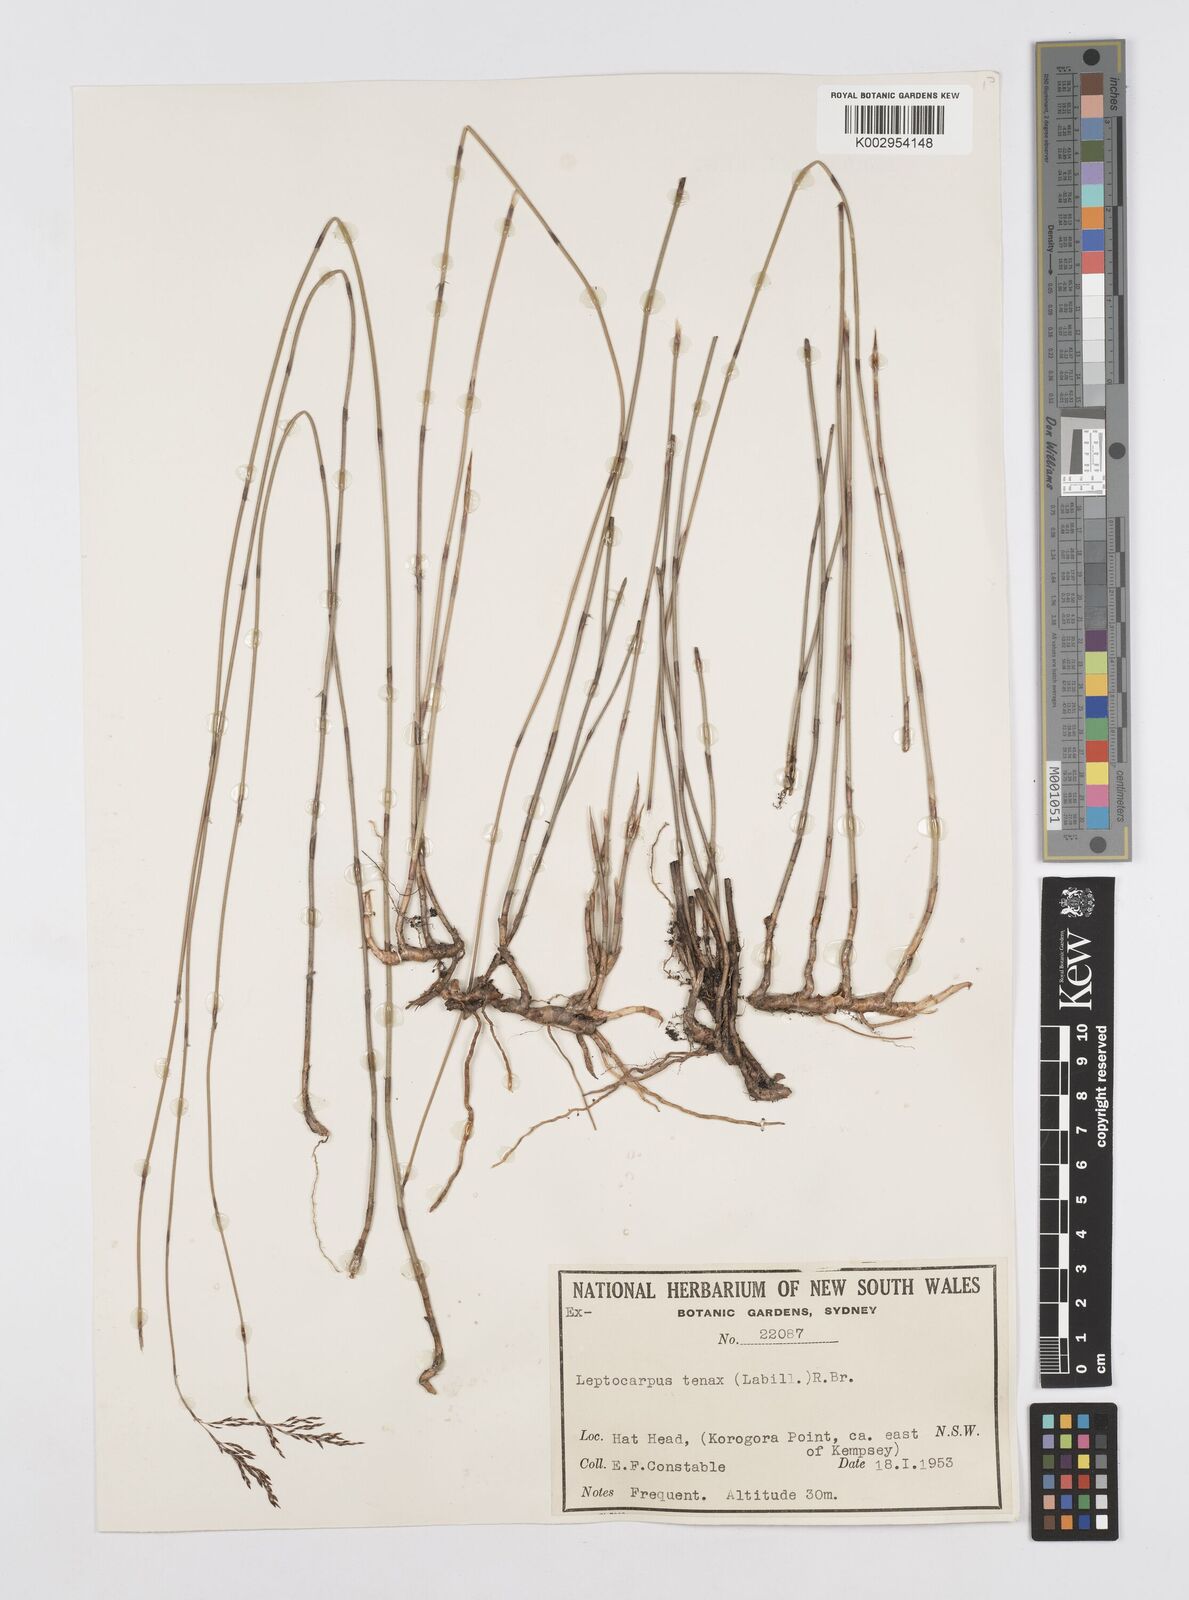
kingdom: Plantae
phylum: Tracheophyta
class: Liliopsida
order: Poales
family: Restionaceae
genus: Leptocarpus
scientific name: Leptocarpus tenax
